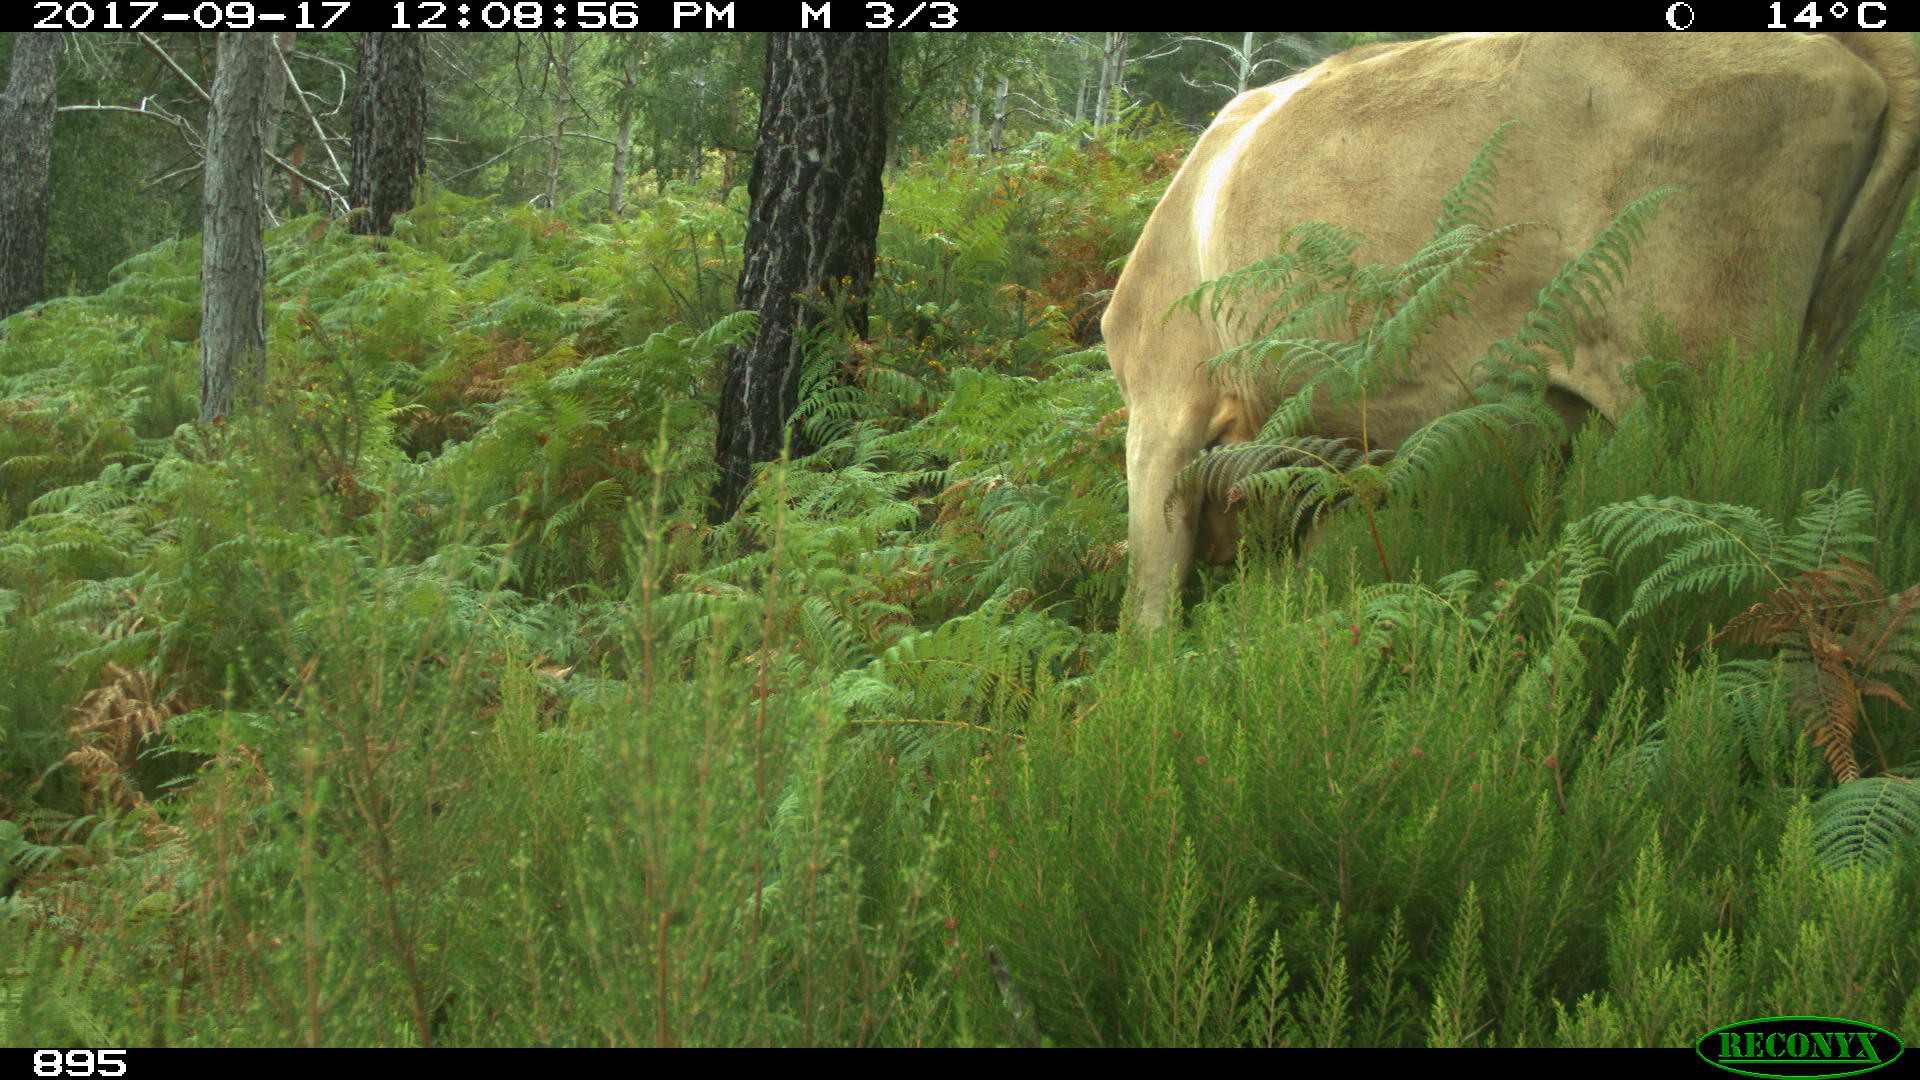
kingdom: Animalia
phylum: Chordata
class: Mammalia
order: Artiodactyla
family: Bovidae
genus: Bos
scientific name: Bos taurus
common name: Domesticated cattle
